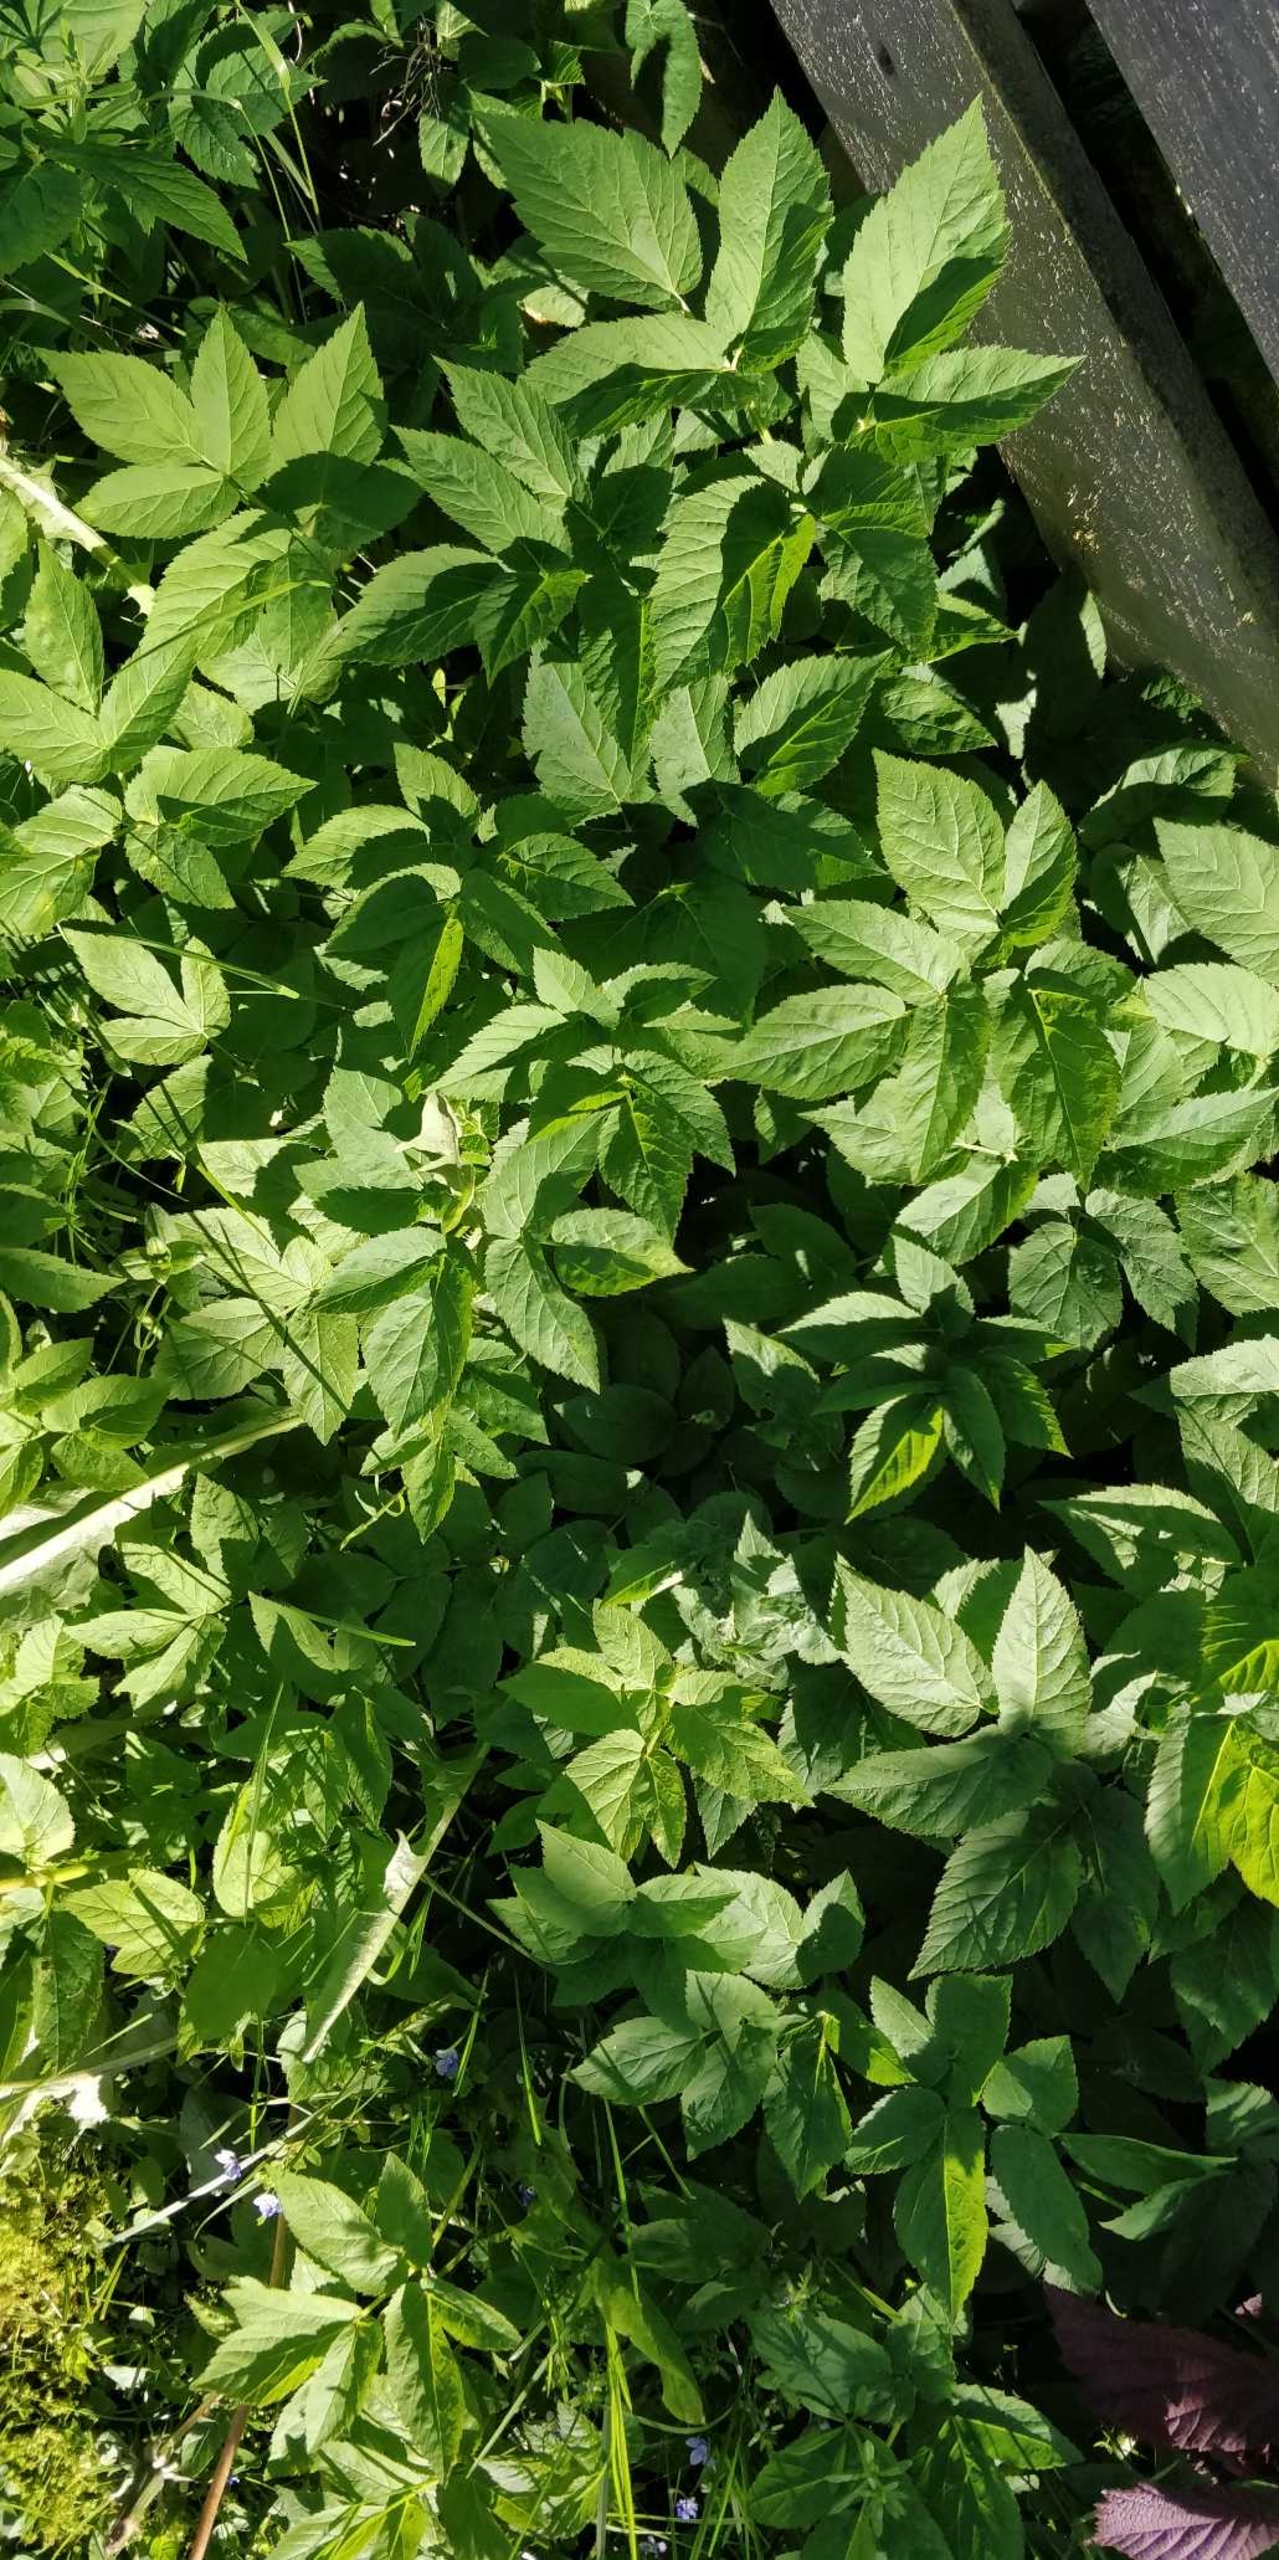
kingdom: Plantae
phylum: Tracheophyta
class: Magnoliopsida
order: Apiales
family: Apiaceae
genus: Aegopodium
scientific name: Aegopodium podagraria
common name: Skvalderkål
